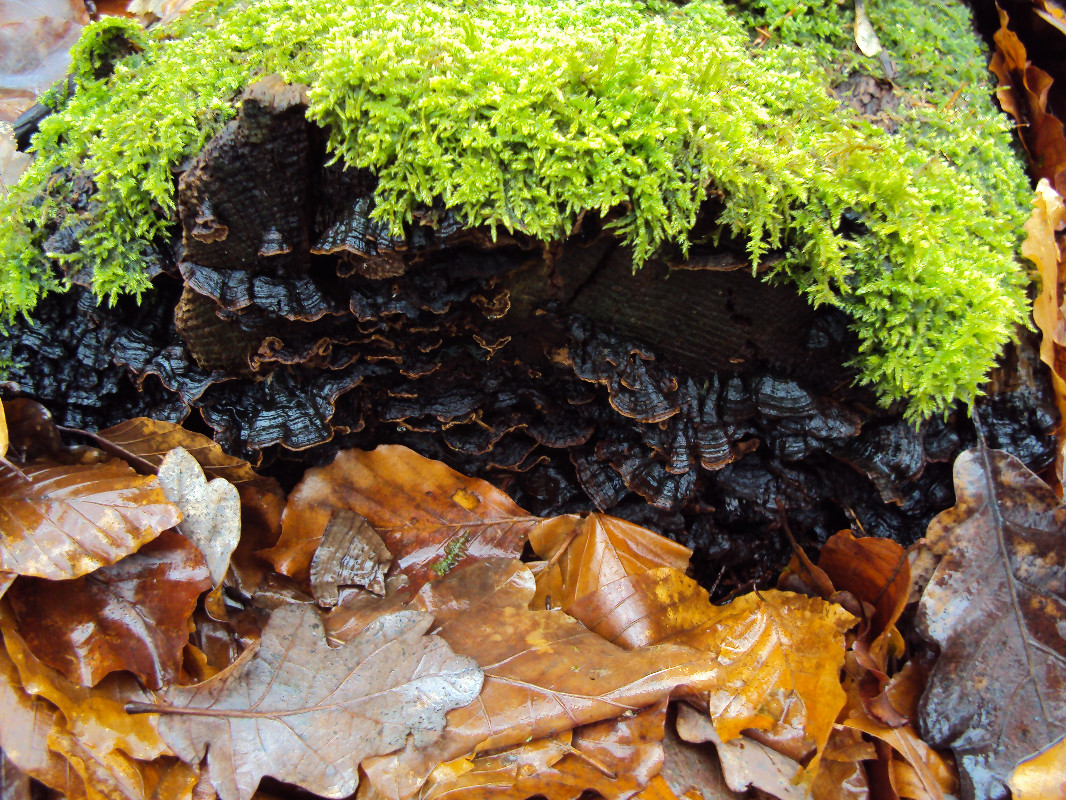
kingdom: Fungi
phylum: Basidiomycota
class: Agaricomycetes
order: Hymenochaetales
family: Hymenochaetaceae
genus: Hymenochaete
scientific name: Hymenochaete rubiginosa
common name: stiv ruslædersvamp
